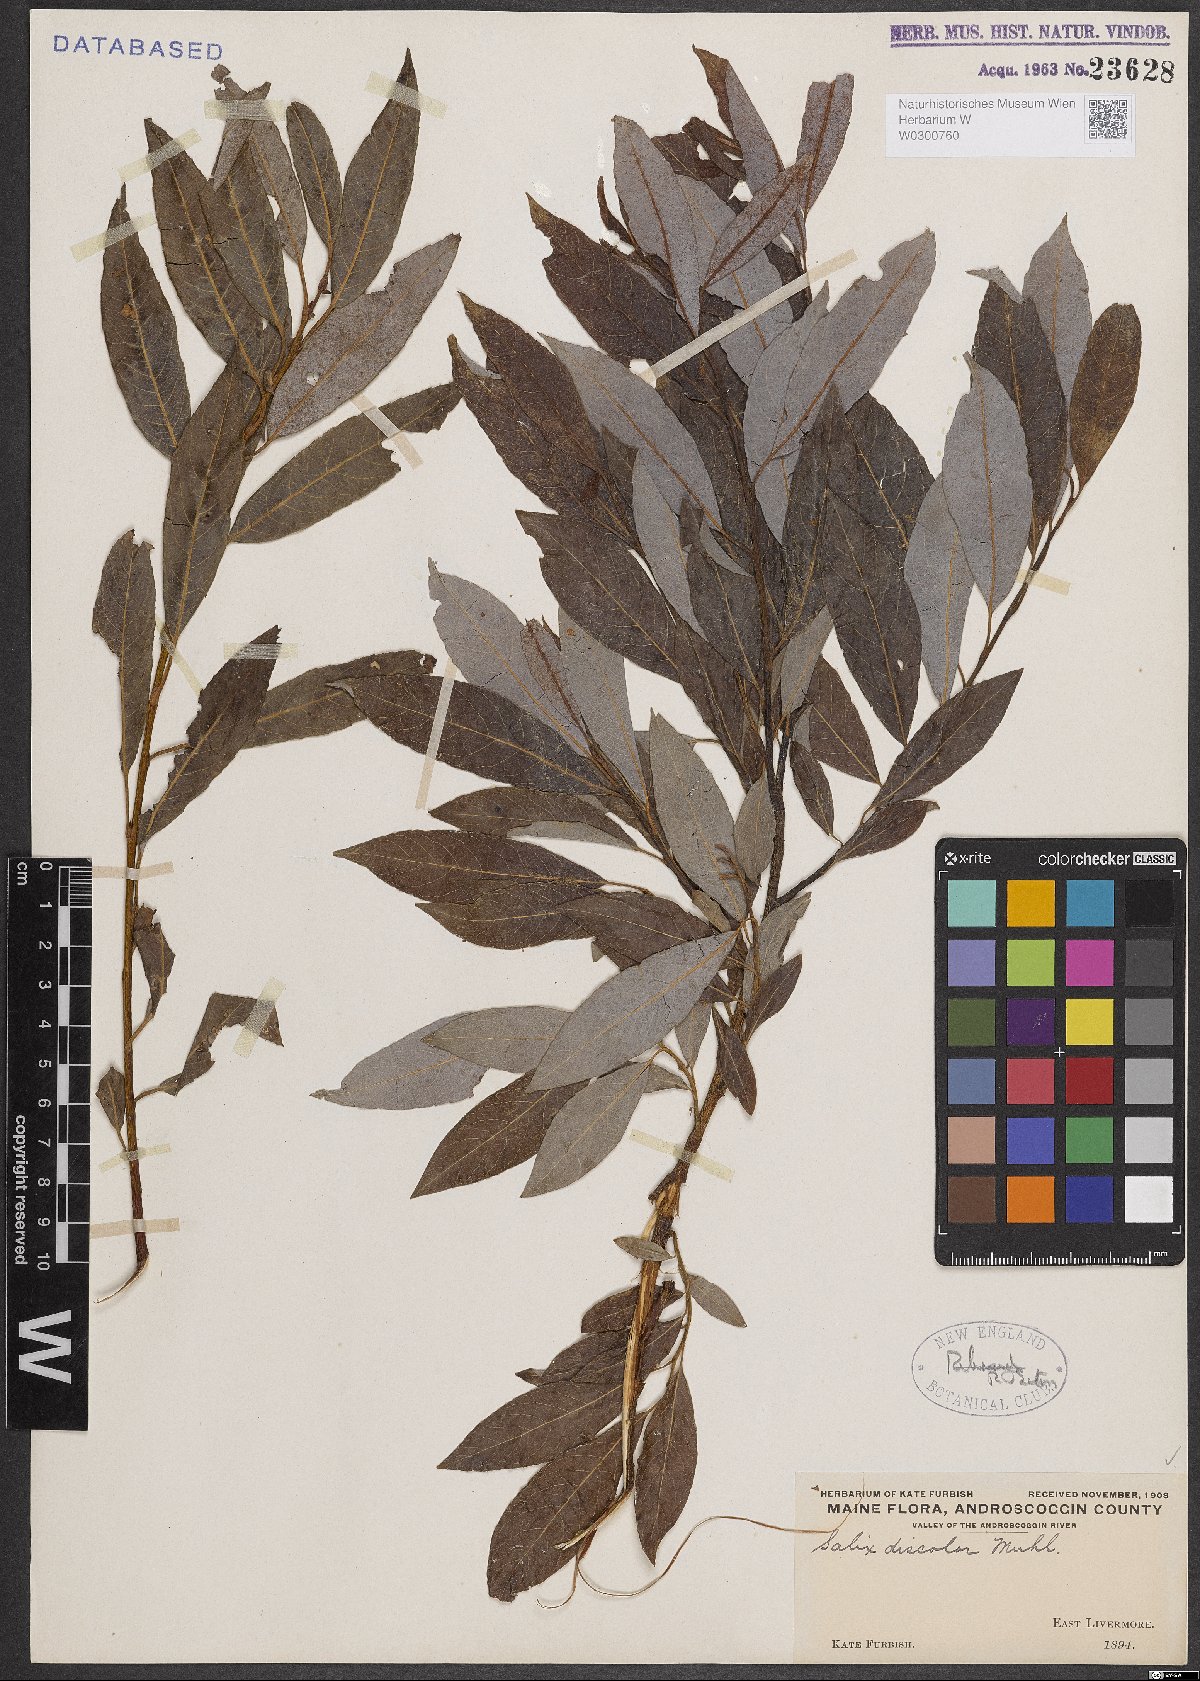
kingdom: Plantae
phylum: Tracheophyta
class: Magnoliopsida
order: Malpighiales
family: Salicaceae
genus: Salix
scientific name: Salix discolor
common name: Glaucous willow
